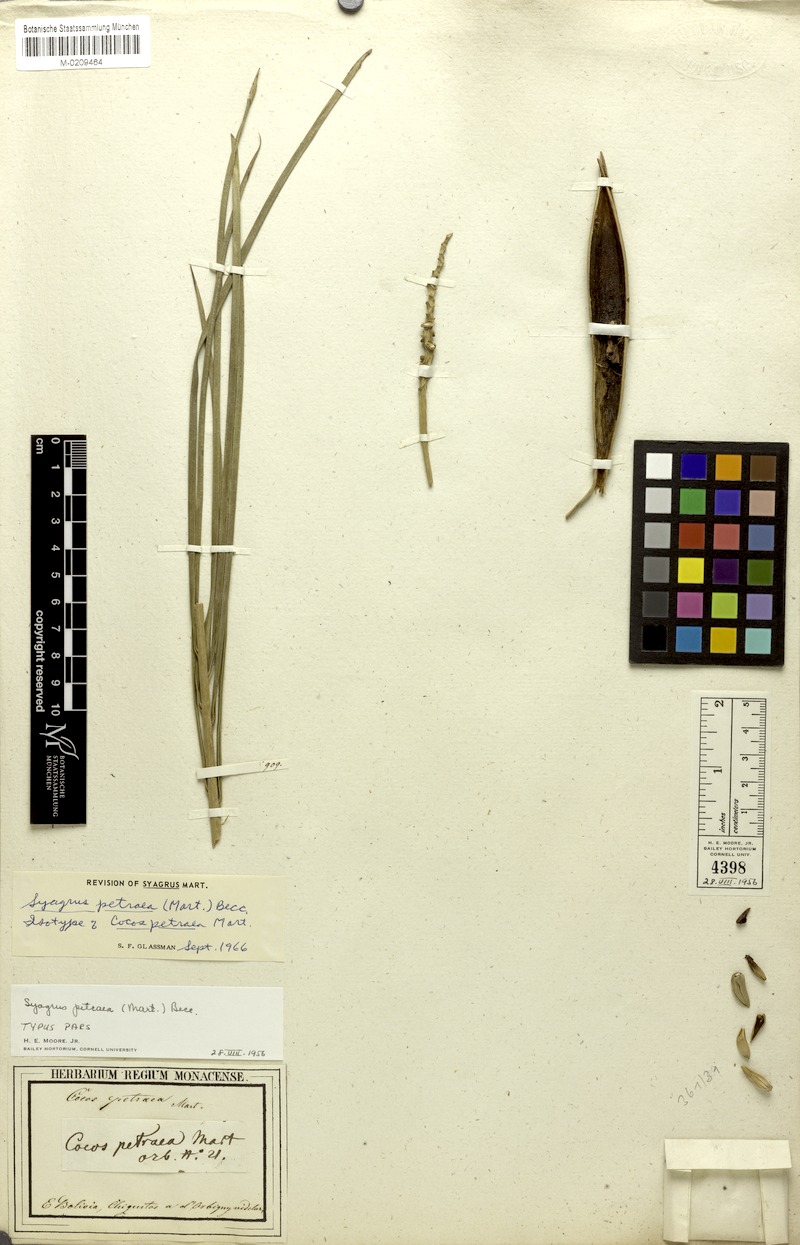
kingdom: Plantae
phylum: Tracheophyta
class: Liliopsida
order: Arecales
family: Arecaceae
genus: Syagrus
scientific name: Syagrus petraea
